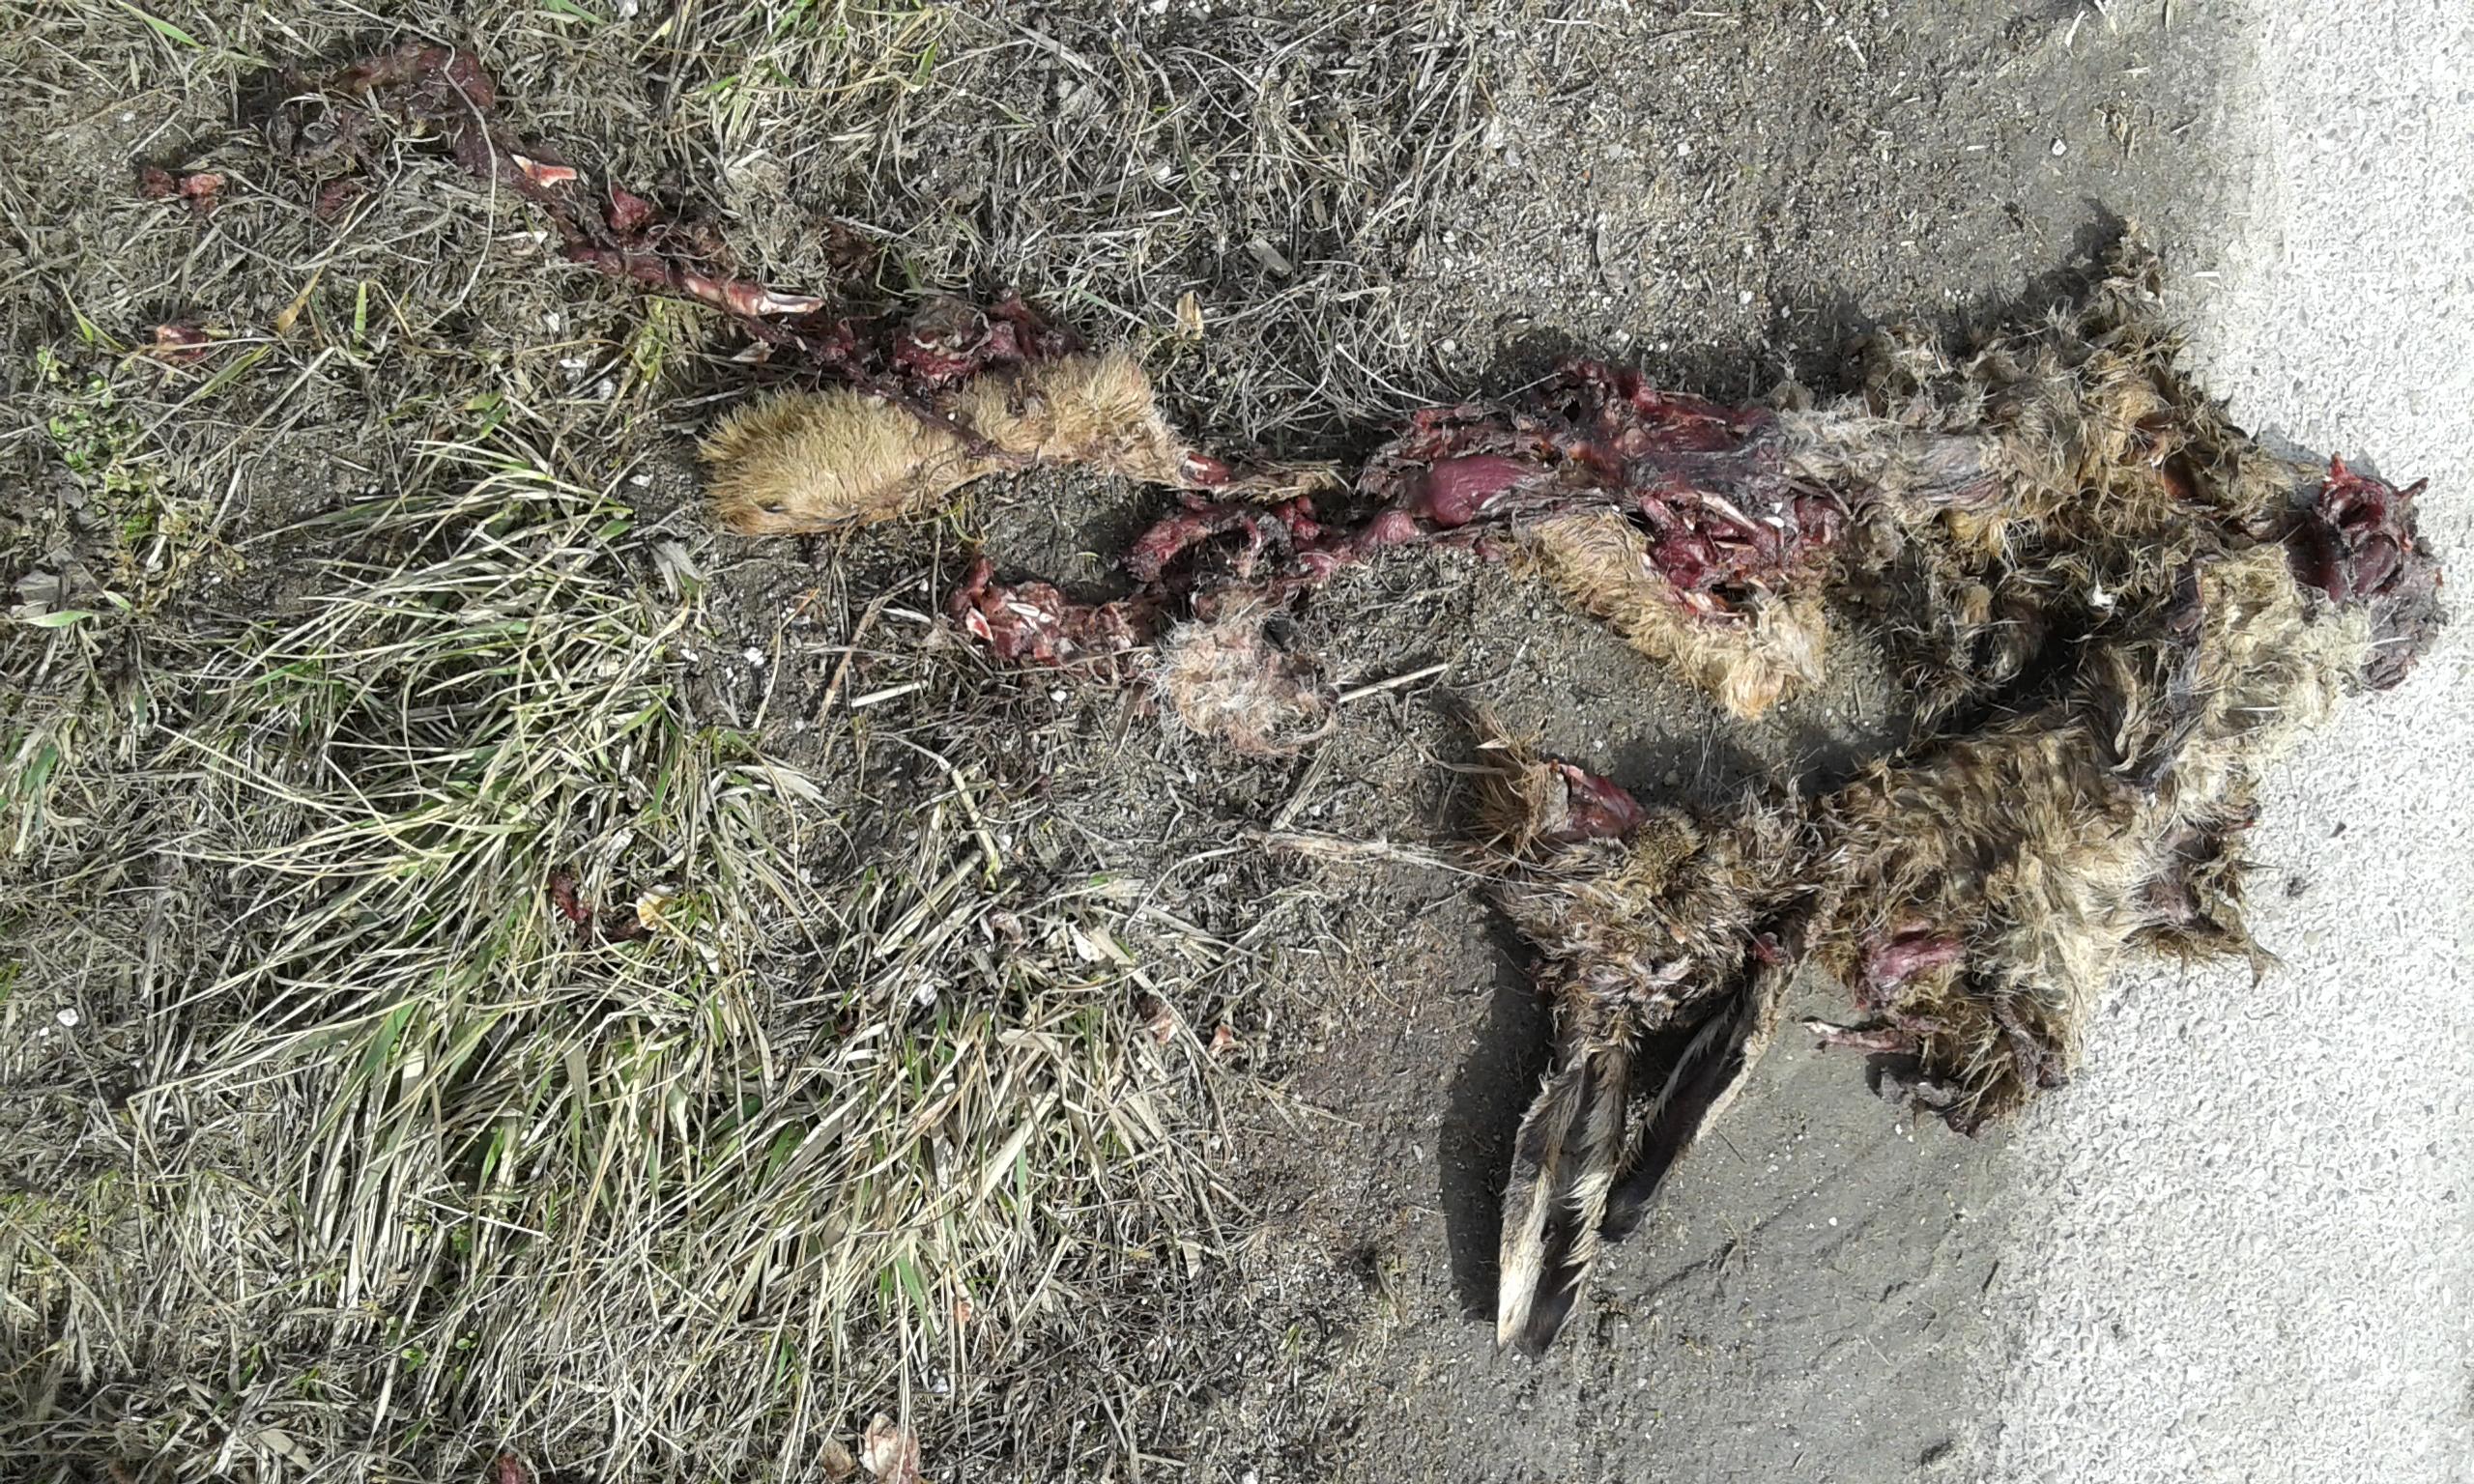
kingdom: Animalia
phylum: Chordata
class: Mammalia
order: Lagomorpha
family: Leporidae
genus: Oryctolagus
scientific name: Oryctolagus cuniculus
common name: European rabbit
